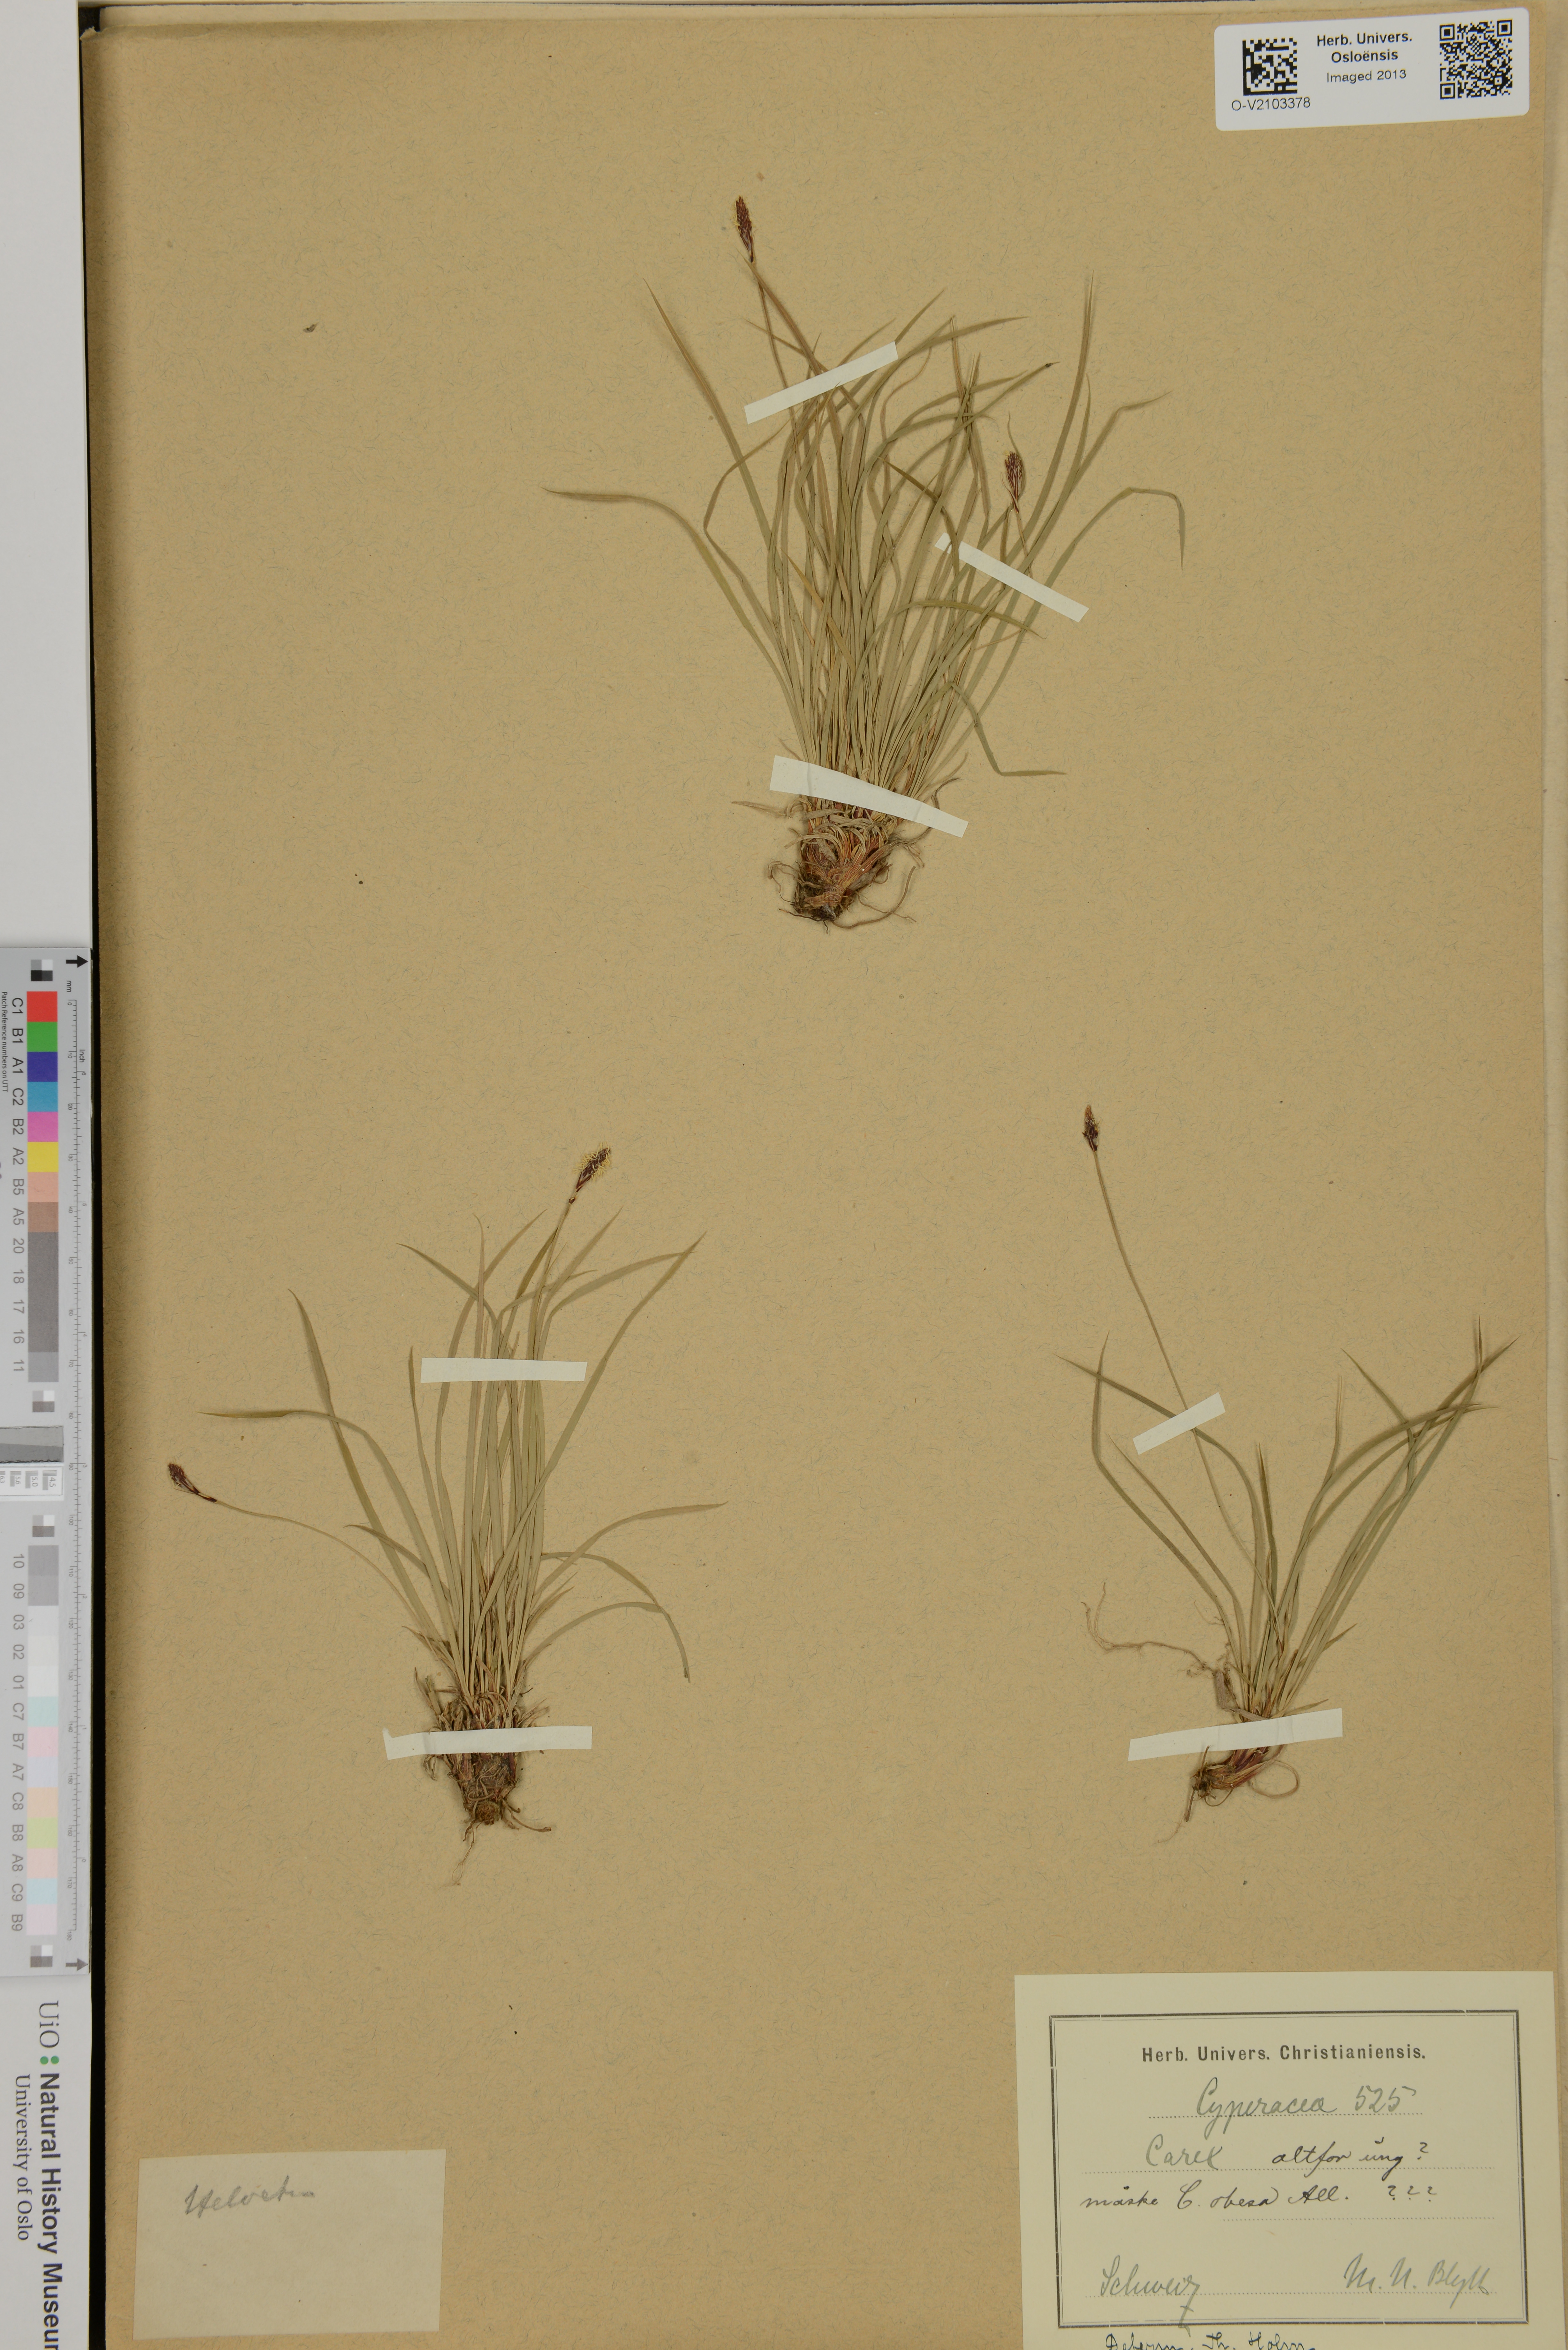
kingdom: Plantae
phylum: Tracheophyta
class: Liliopsida
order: Poales
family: Cyperaceae
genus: Carex
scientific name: Carex
